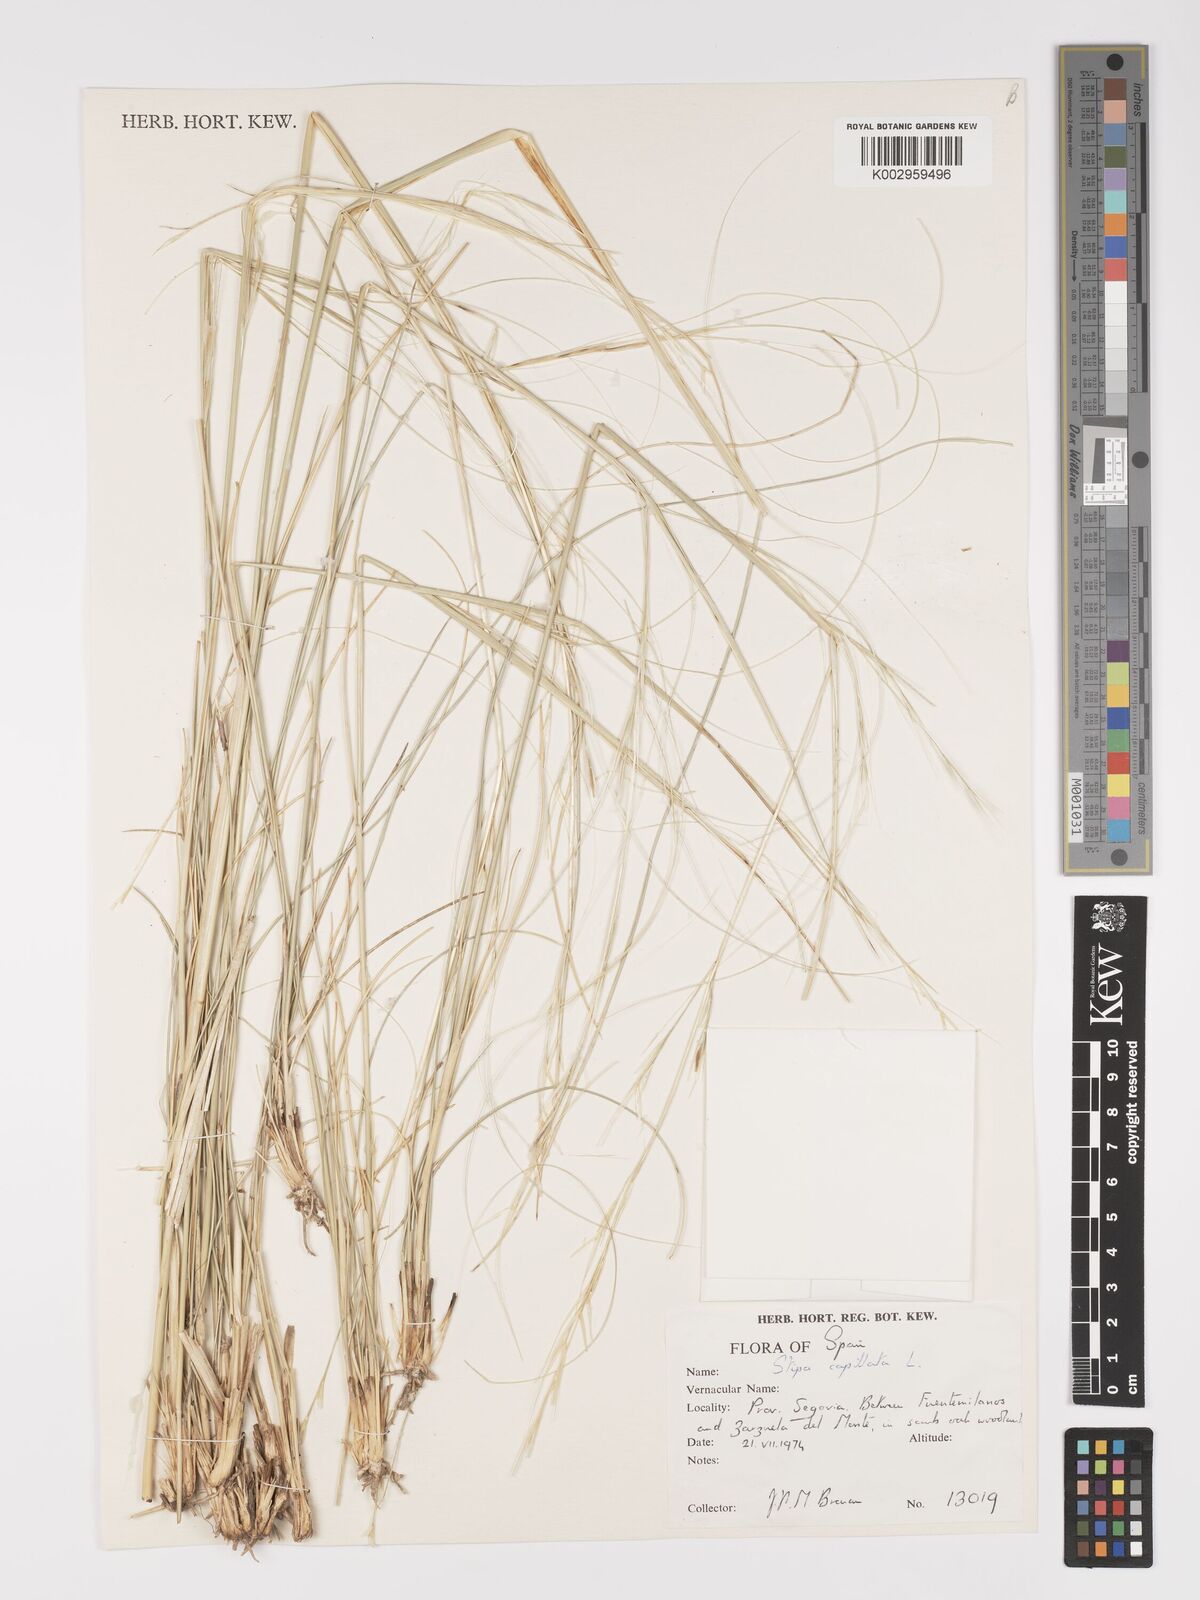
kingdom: Plantae
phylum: Tracheophyta
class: Liliopsida
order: Poales
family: Poaceae
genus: Stipa
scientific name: Stipa capillata
